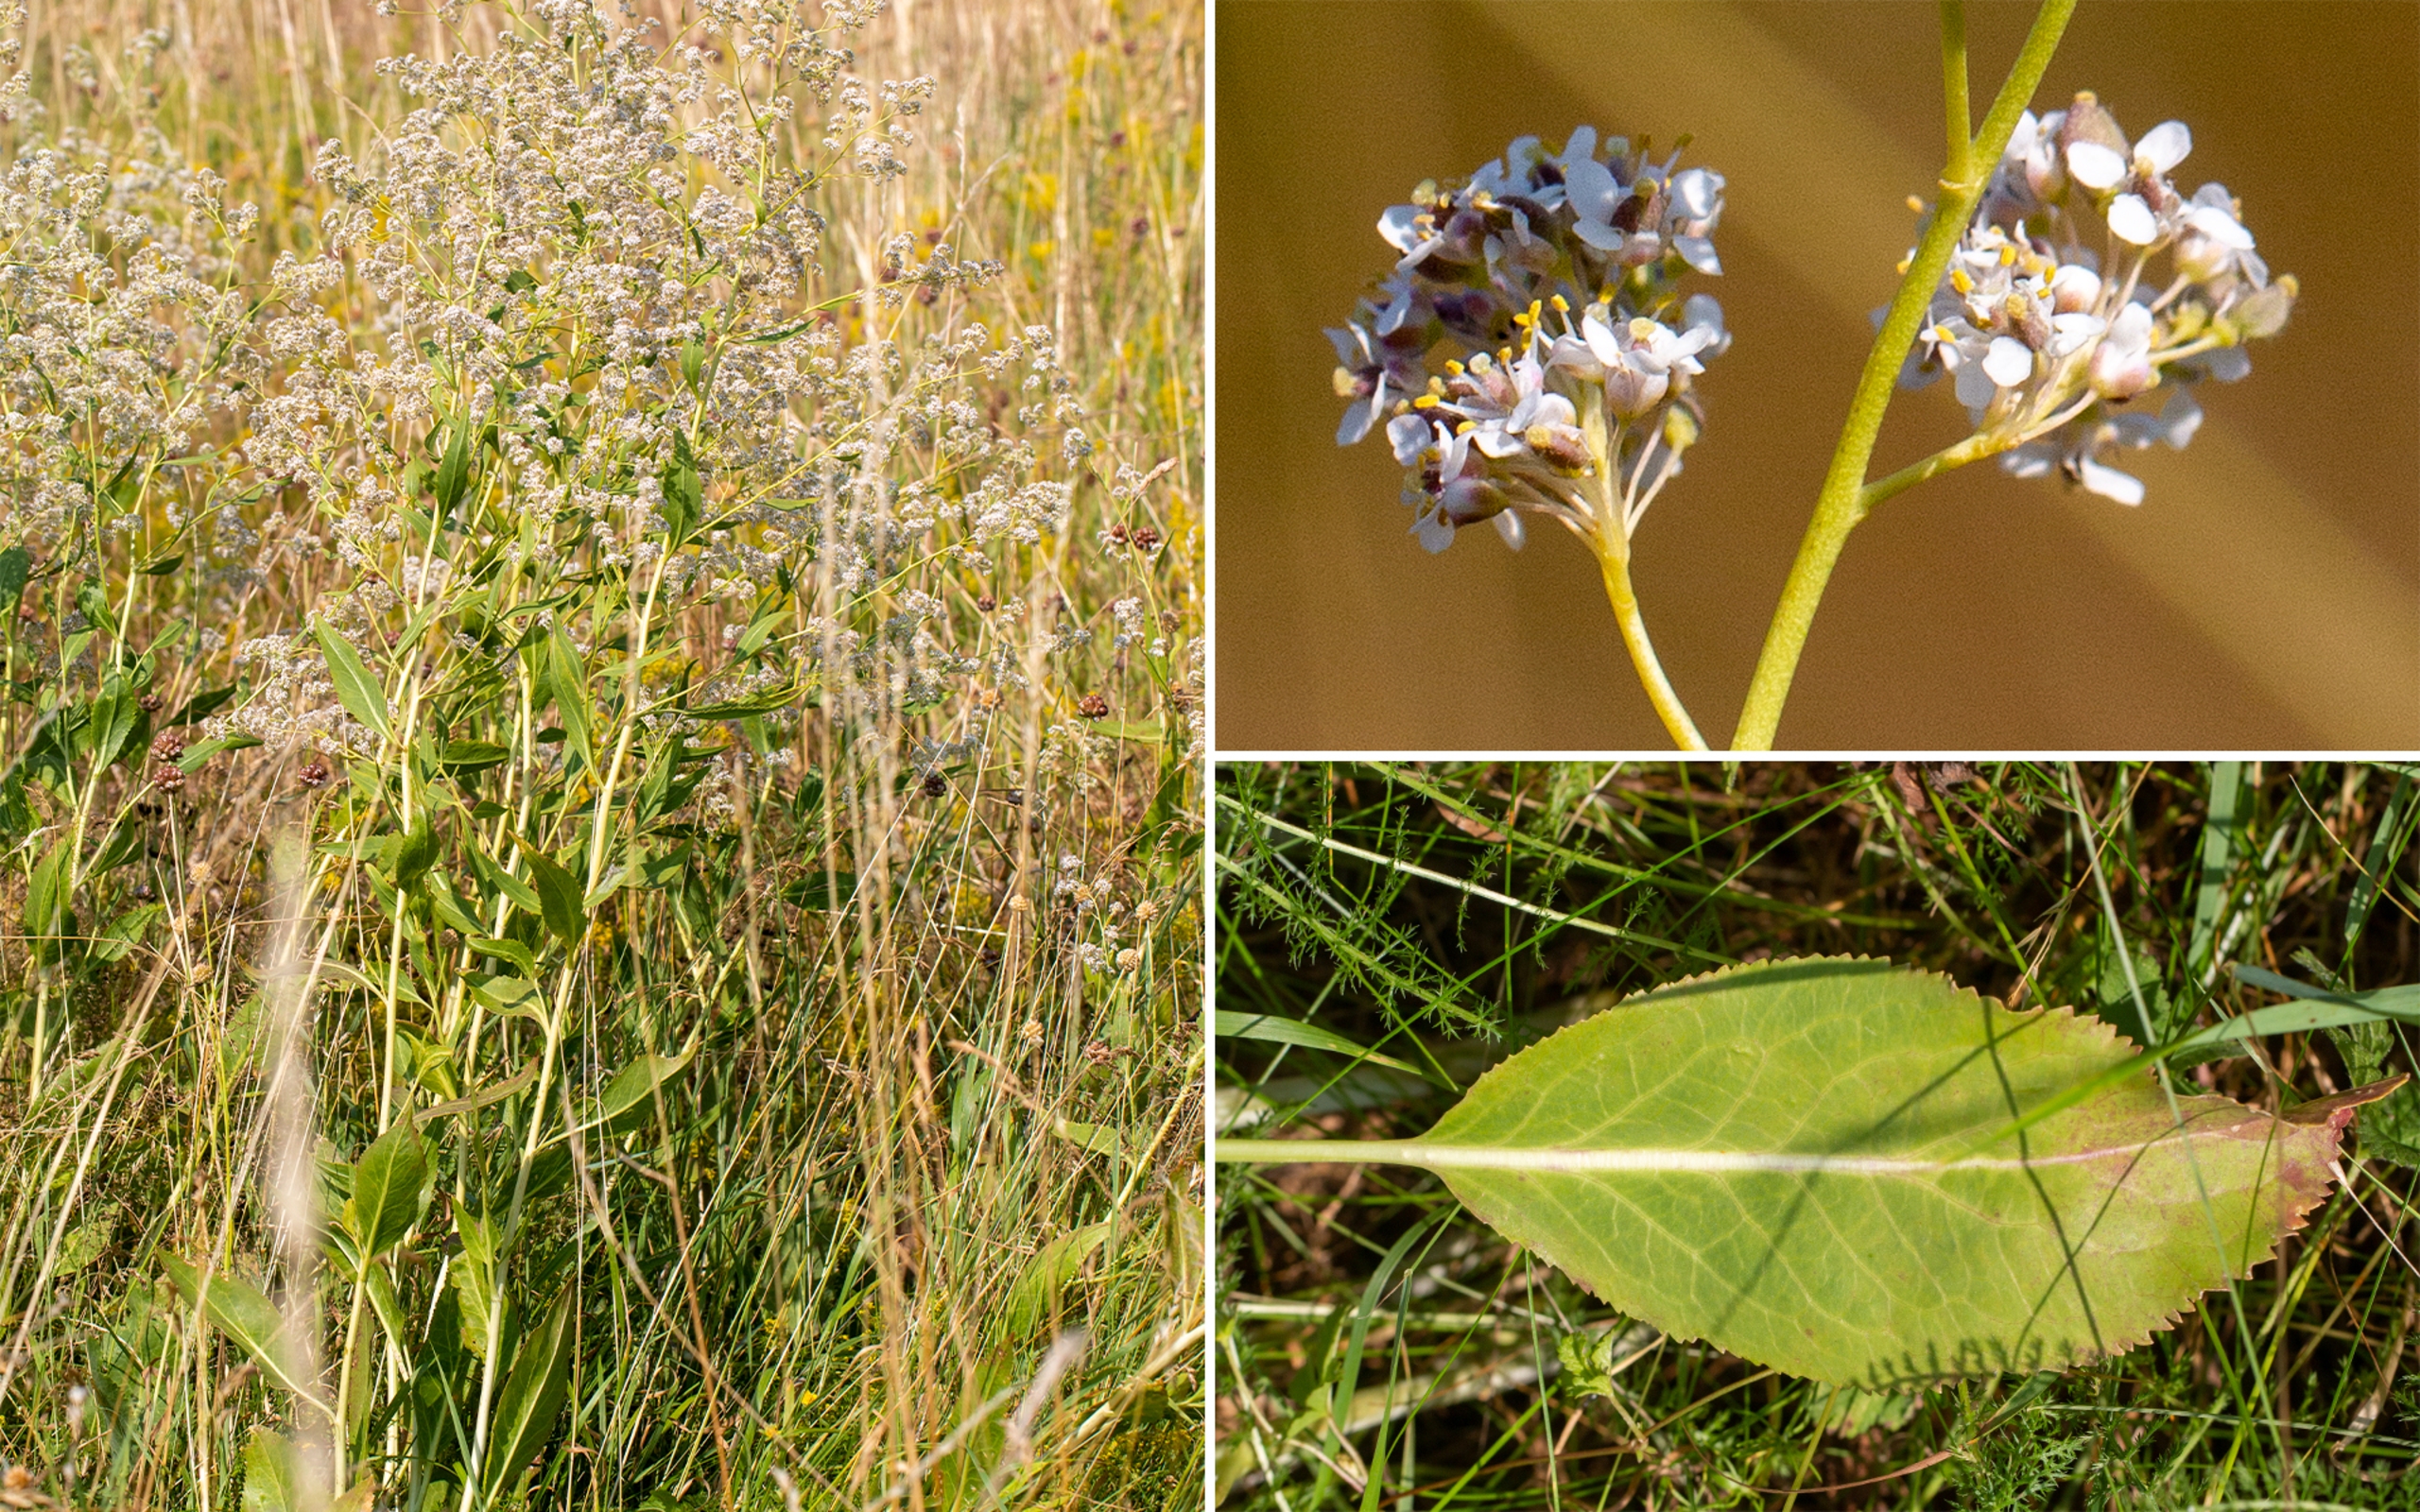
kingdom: Plantae
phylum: Tracheophyta
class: Magnoliopsida
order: Brassicales
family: Brassicaceae
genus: Lepidium
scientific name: Lepidium latifolium
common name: Strand-karse
